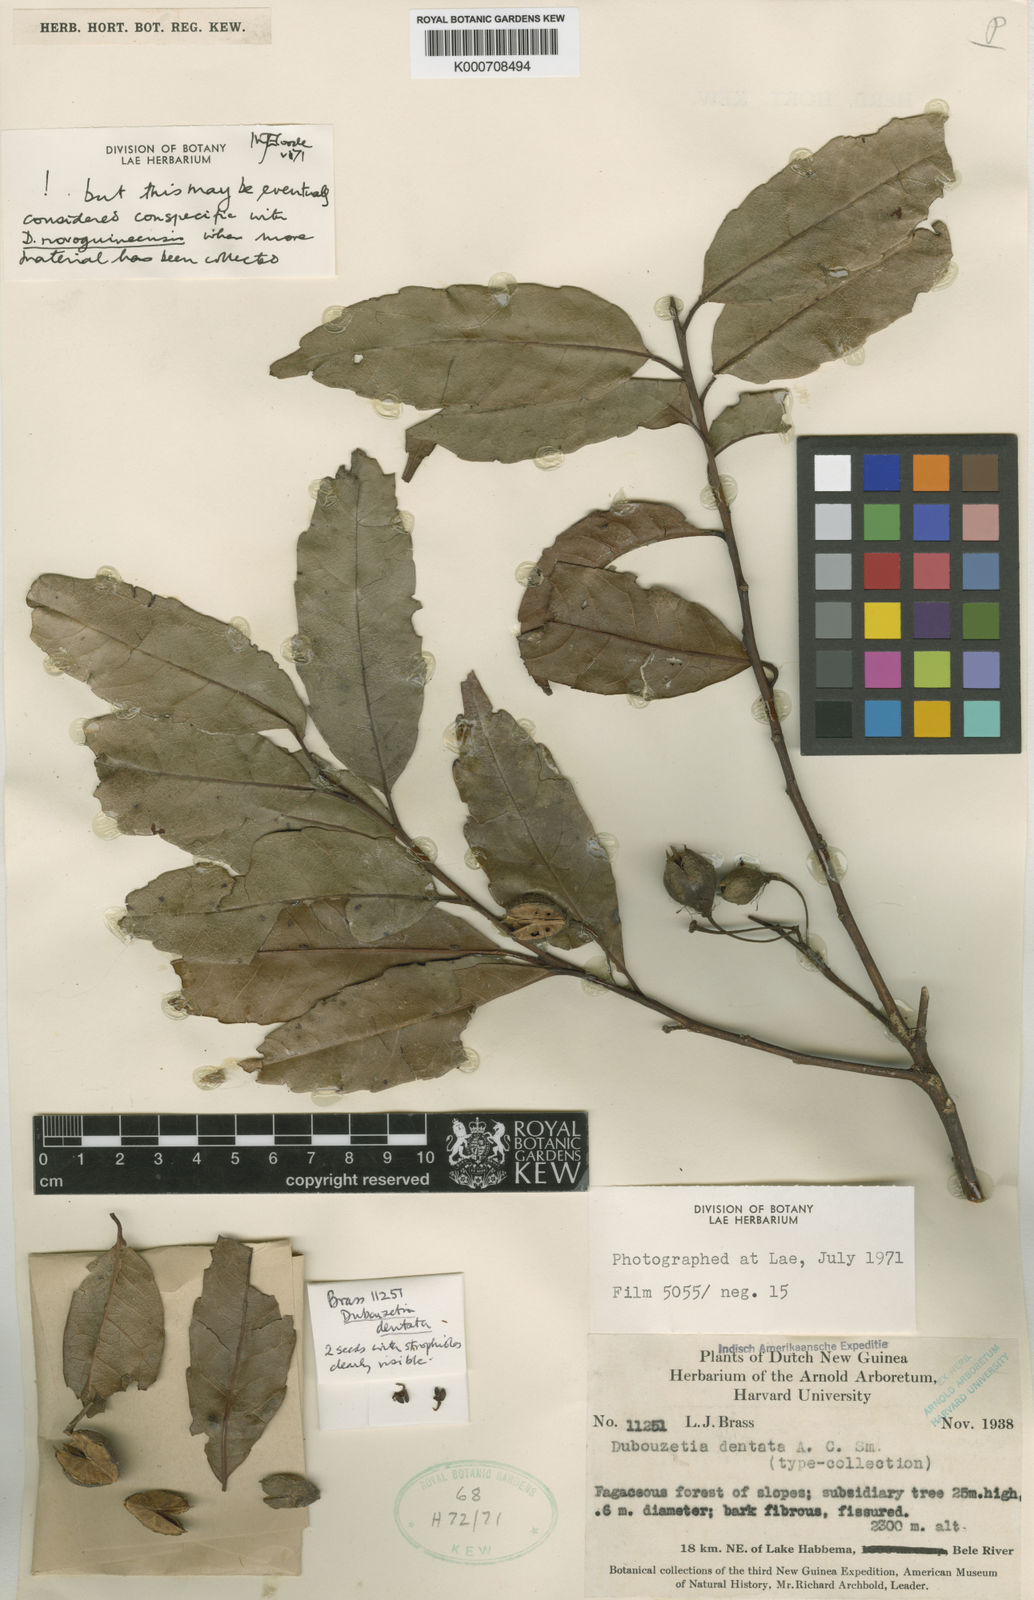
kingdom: Plantae
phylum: Tracheophyta
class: Magnoliopsida
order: Oxalidales
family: Elaeocarpaceae
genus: Dubouzetia
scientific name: Dubouzetia dentata
